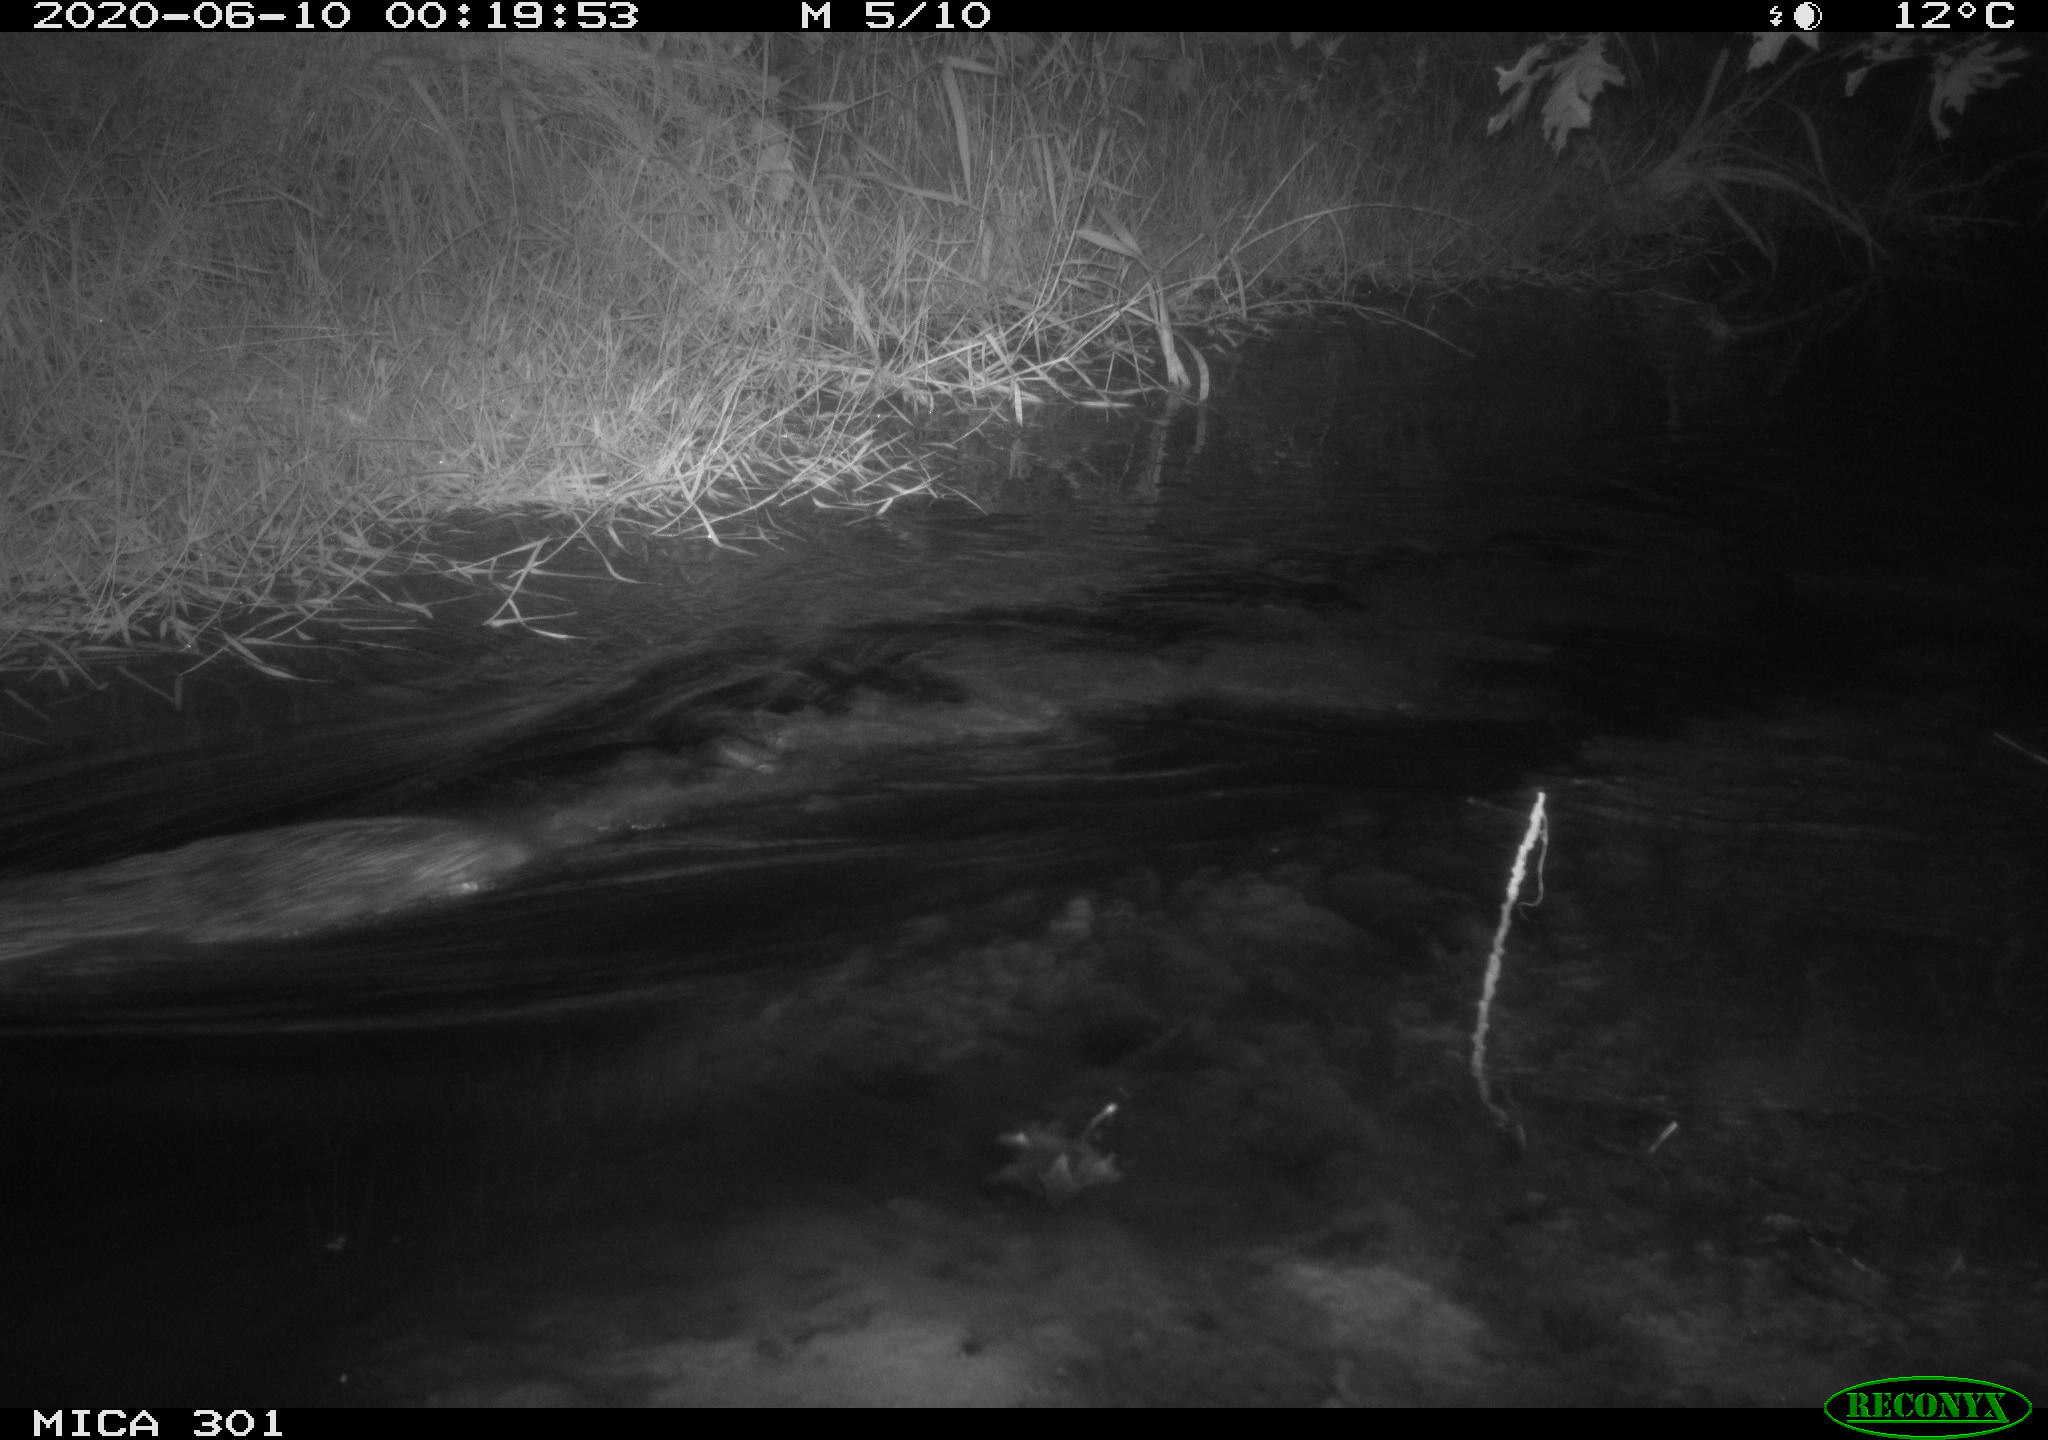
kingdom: Animalia
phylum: Chordata
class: Mammalia
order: Rodentia
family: Castoridae
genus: Castor
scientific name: Castor fiber
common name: Eurasian beaver
